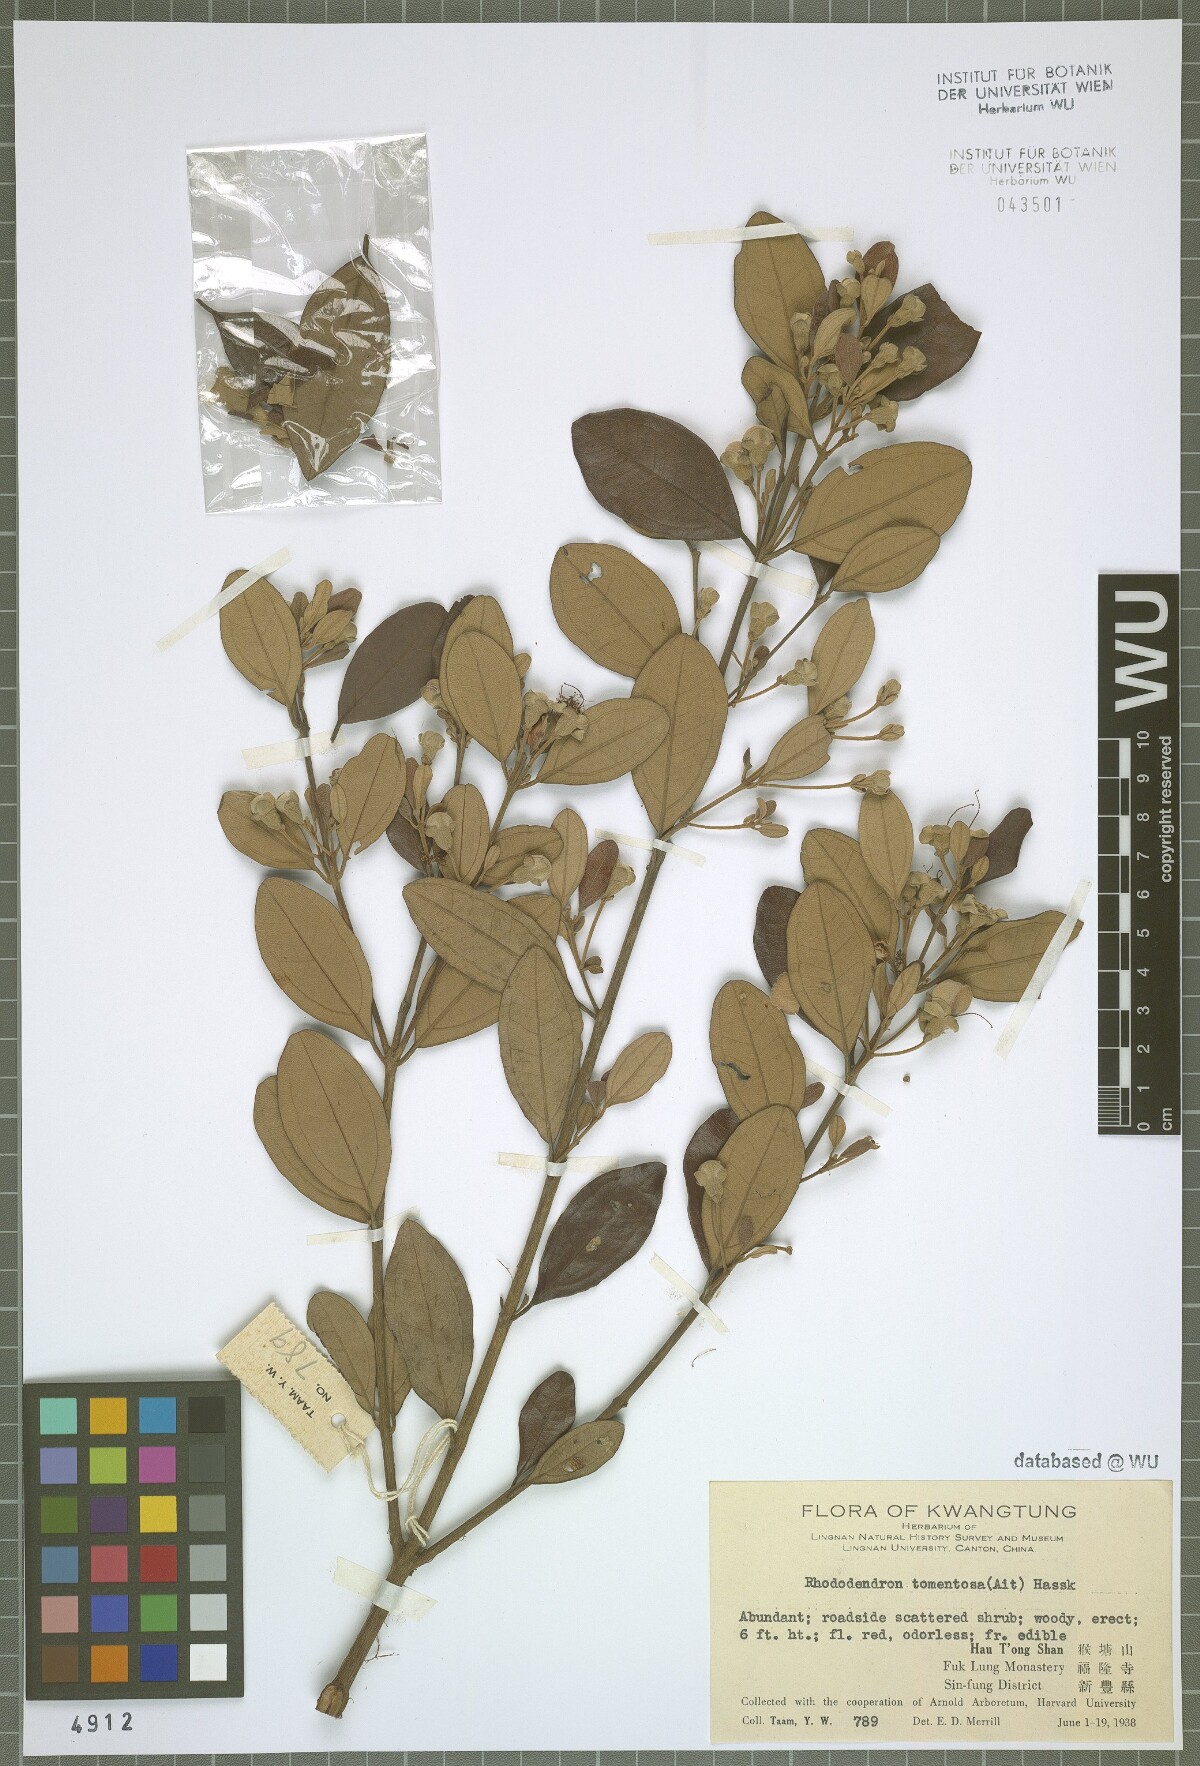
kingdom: Plantae
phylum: Tracheophyta
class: Magnoliopsida
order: Myrtales
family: Myrtaceae
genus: Rhodomyrtus
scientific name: Rhodomyrtus tomentosa
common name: Rose myrtle
